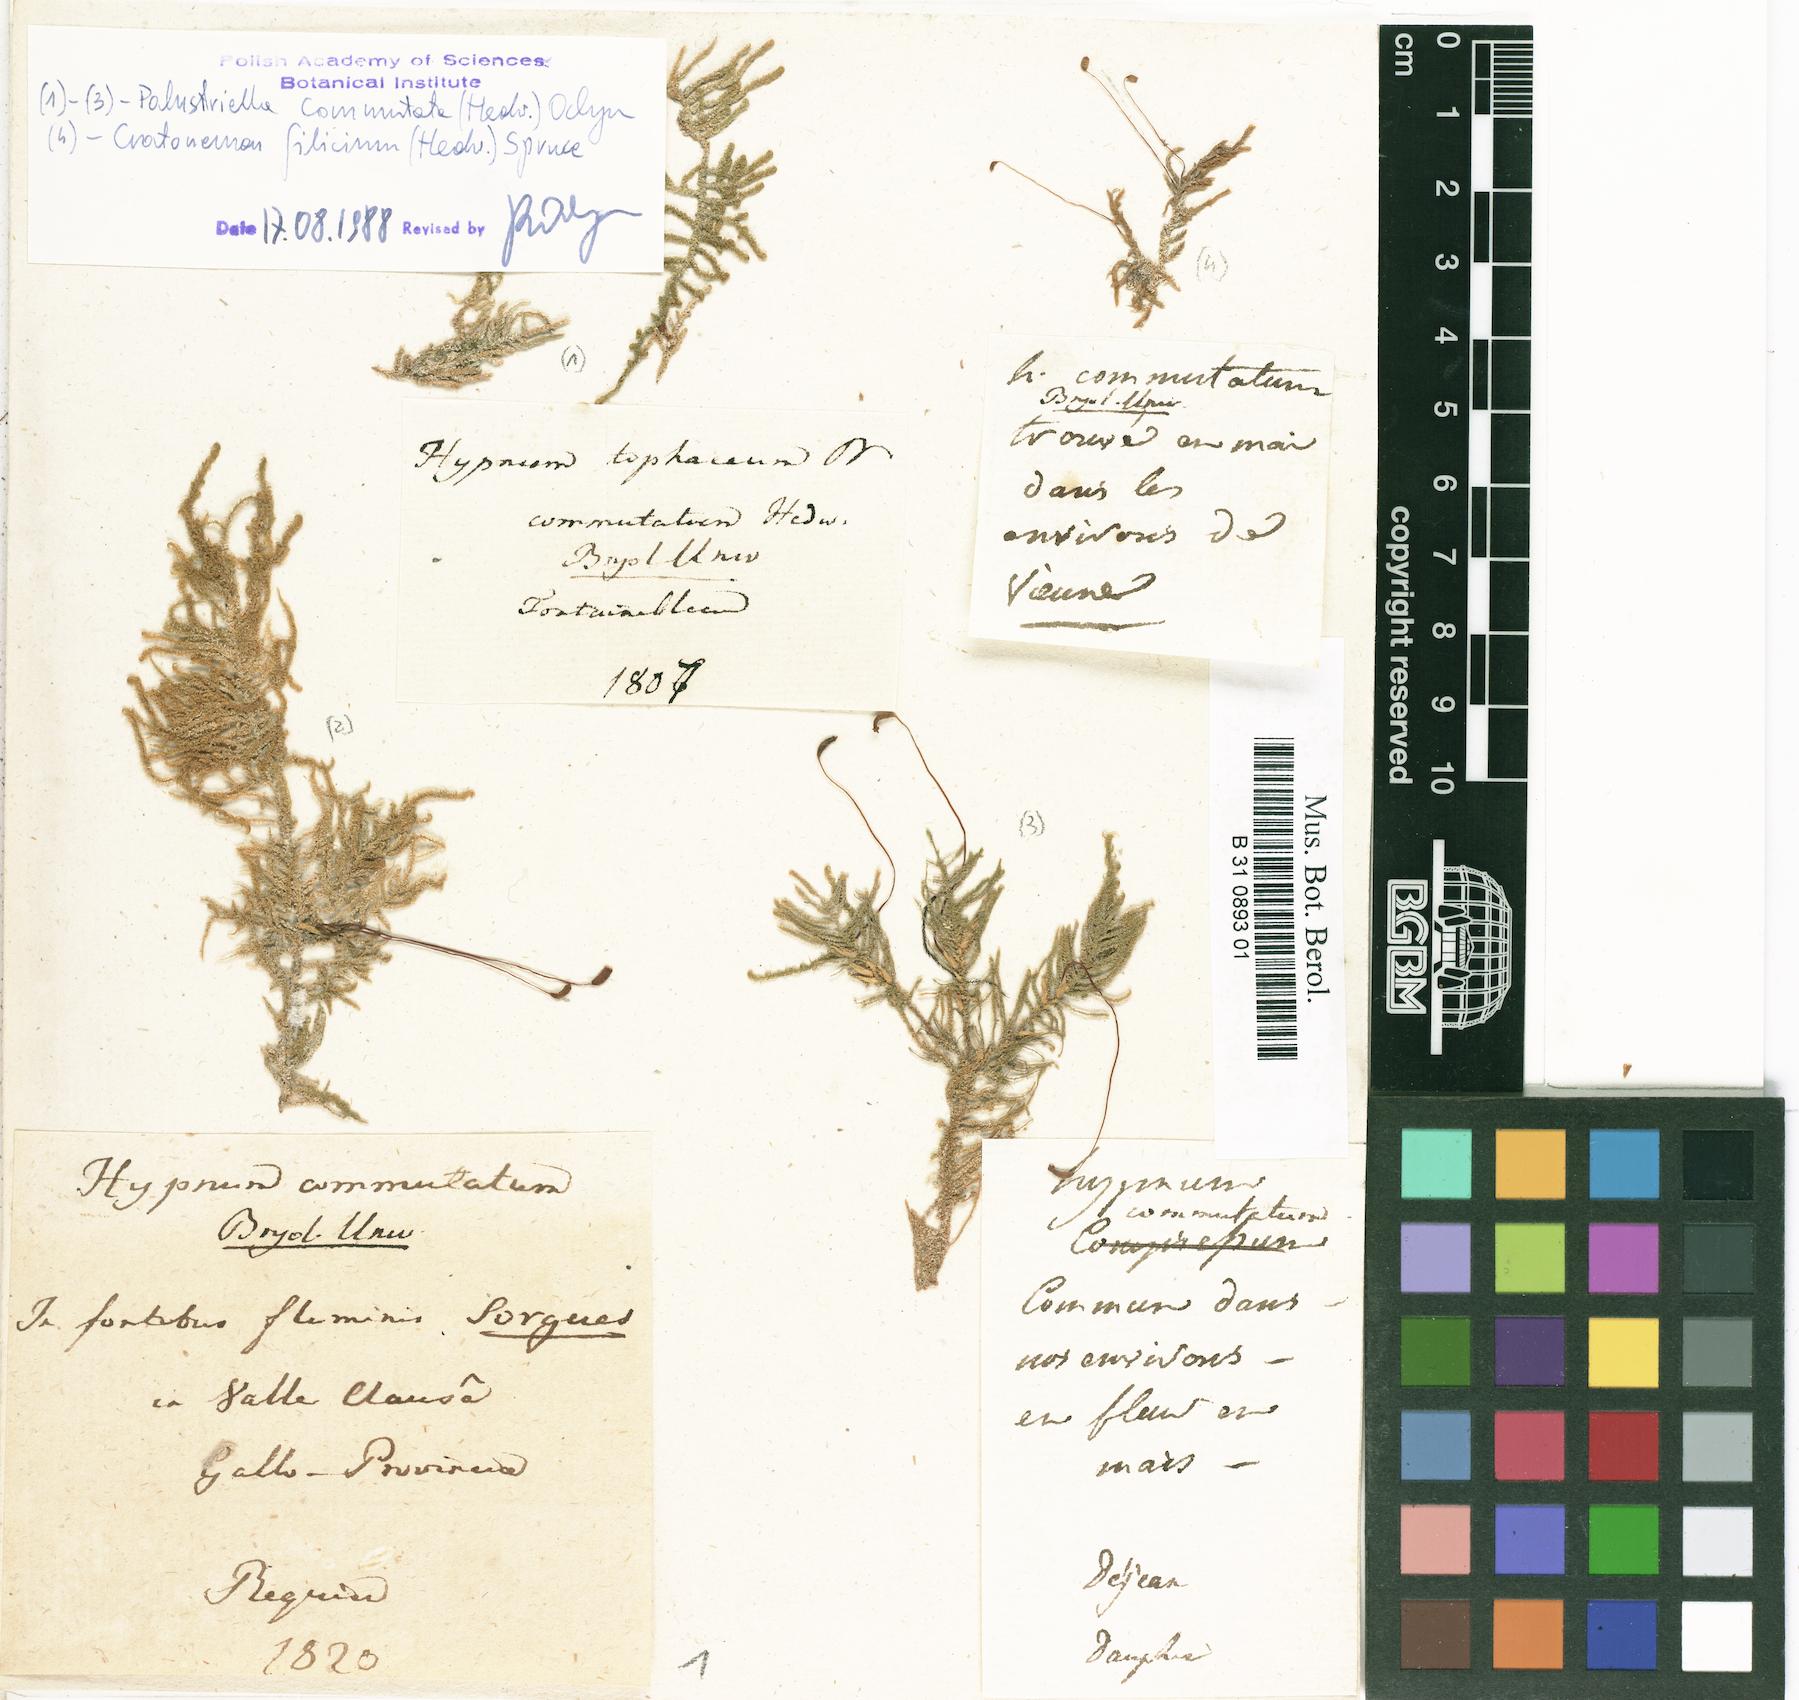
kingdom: Plantae
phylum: Bryophyta
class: Bryopsida
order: Hypnales
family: Amblystegiaceae
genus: Palustriella
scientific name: Palustriella commutata
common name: Curled hook-moss
